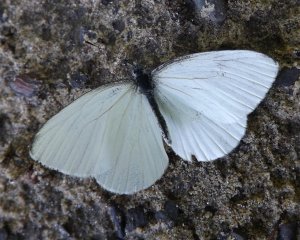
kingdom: Animalia
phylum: Arthropoda
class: Insecta
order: Lepidoptera
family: Pieridae
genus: Pieris
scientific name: Pieris oleracea
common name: Mustard White
